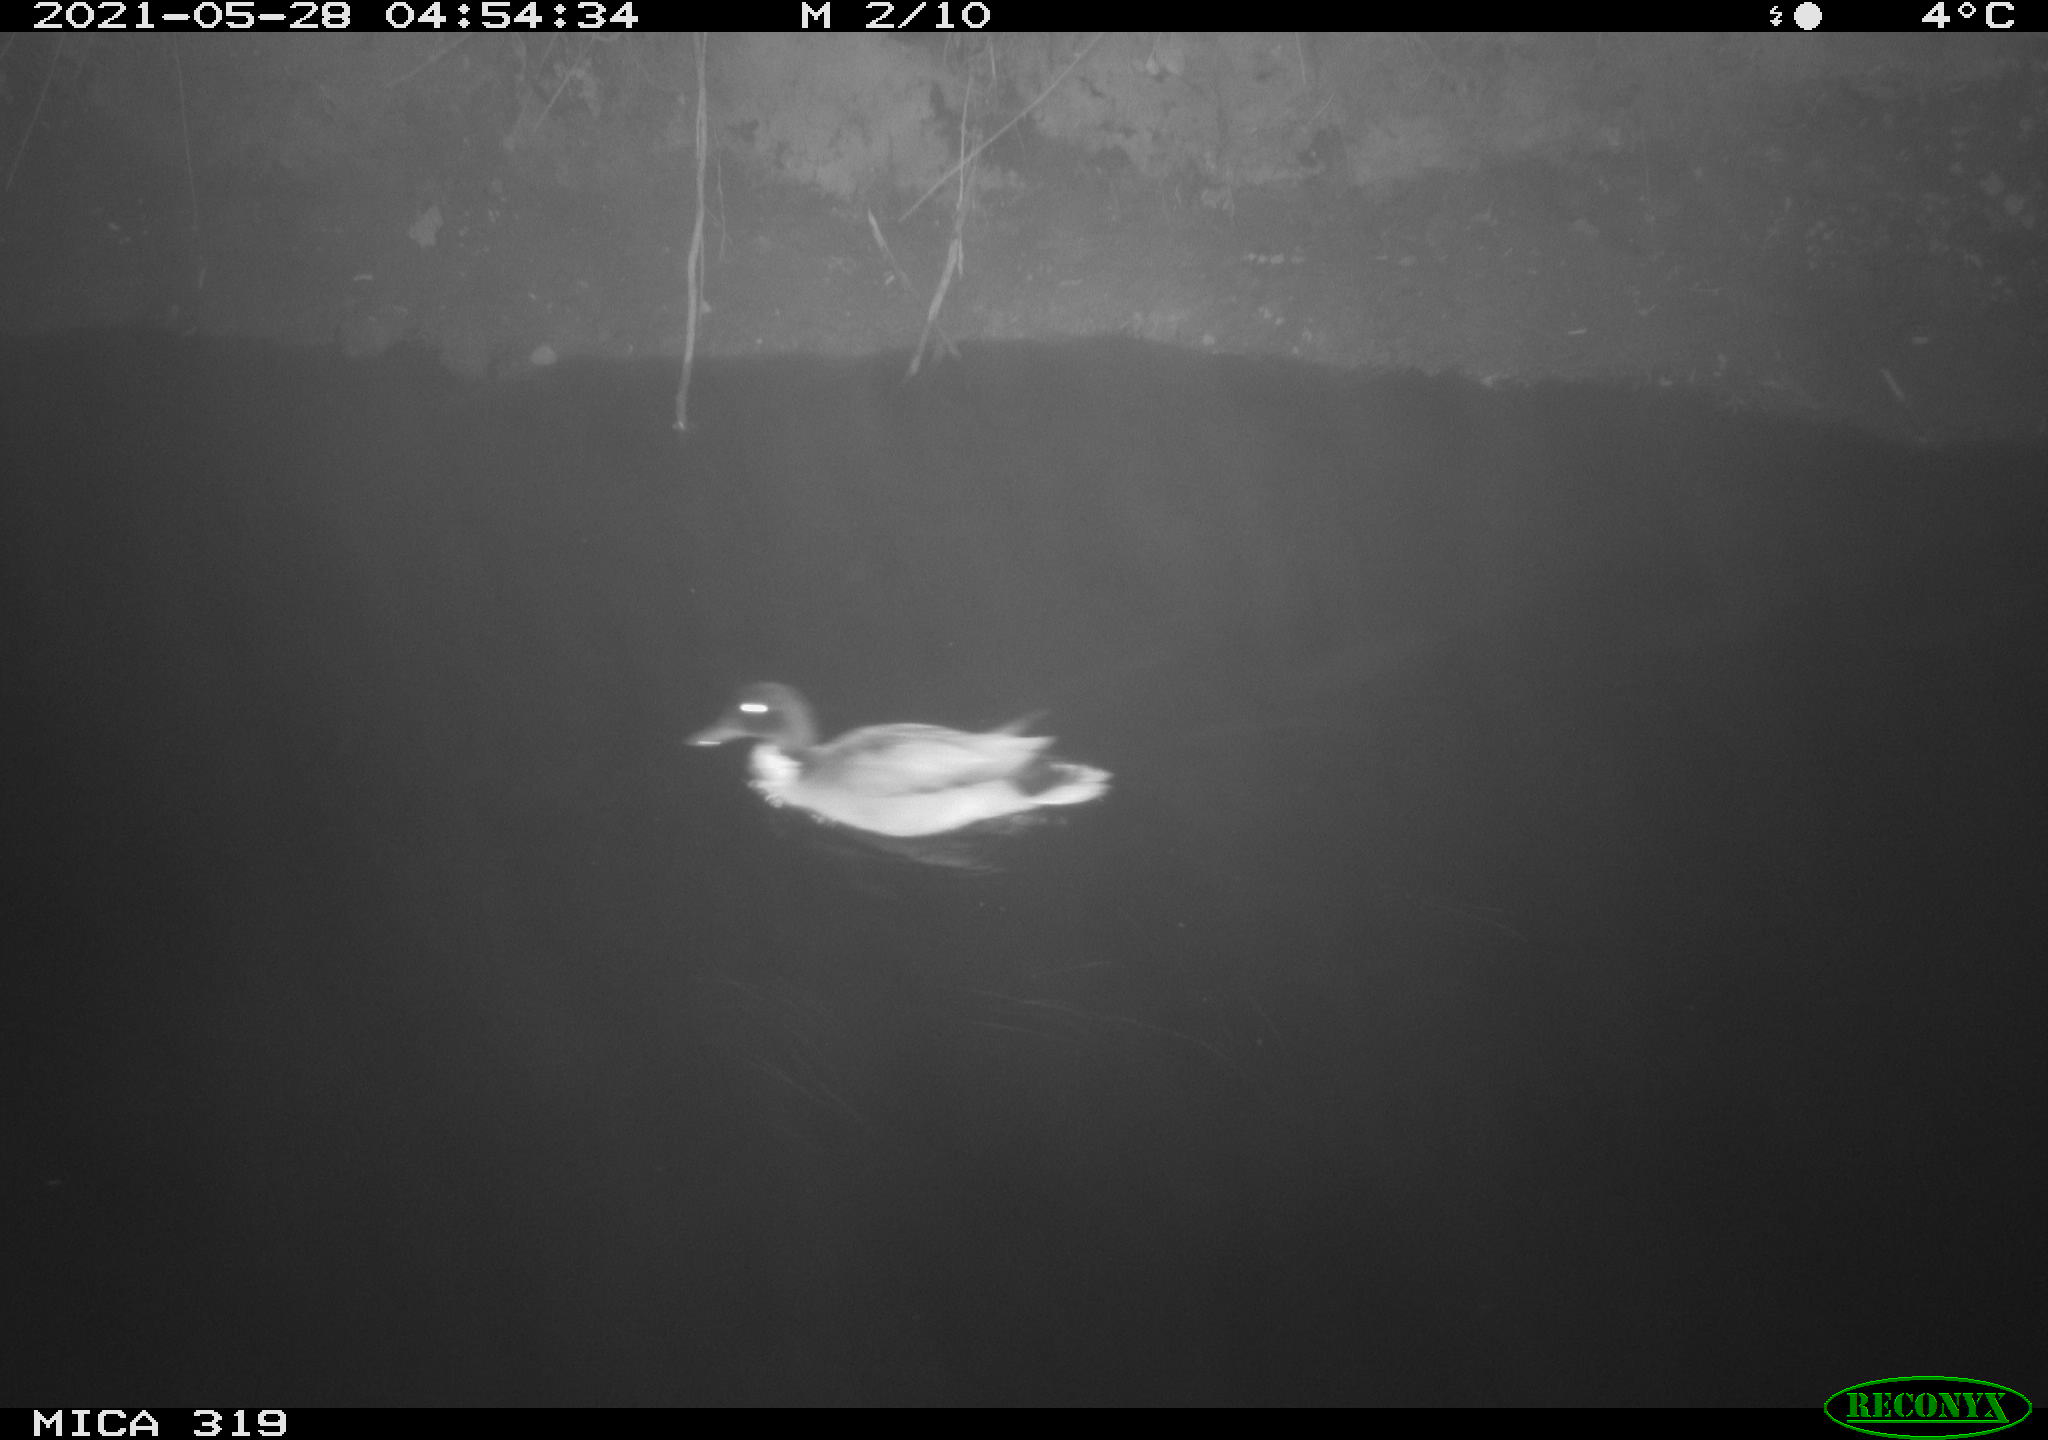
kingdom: Animalia
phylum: Chordata
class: Aves
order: Anseriformes
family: Anatidae
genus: Anas
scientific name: Anas platyrhynchos
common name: Mallard
